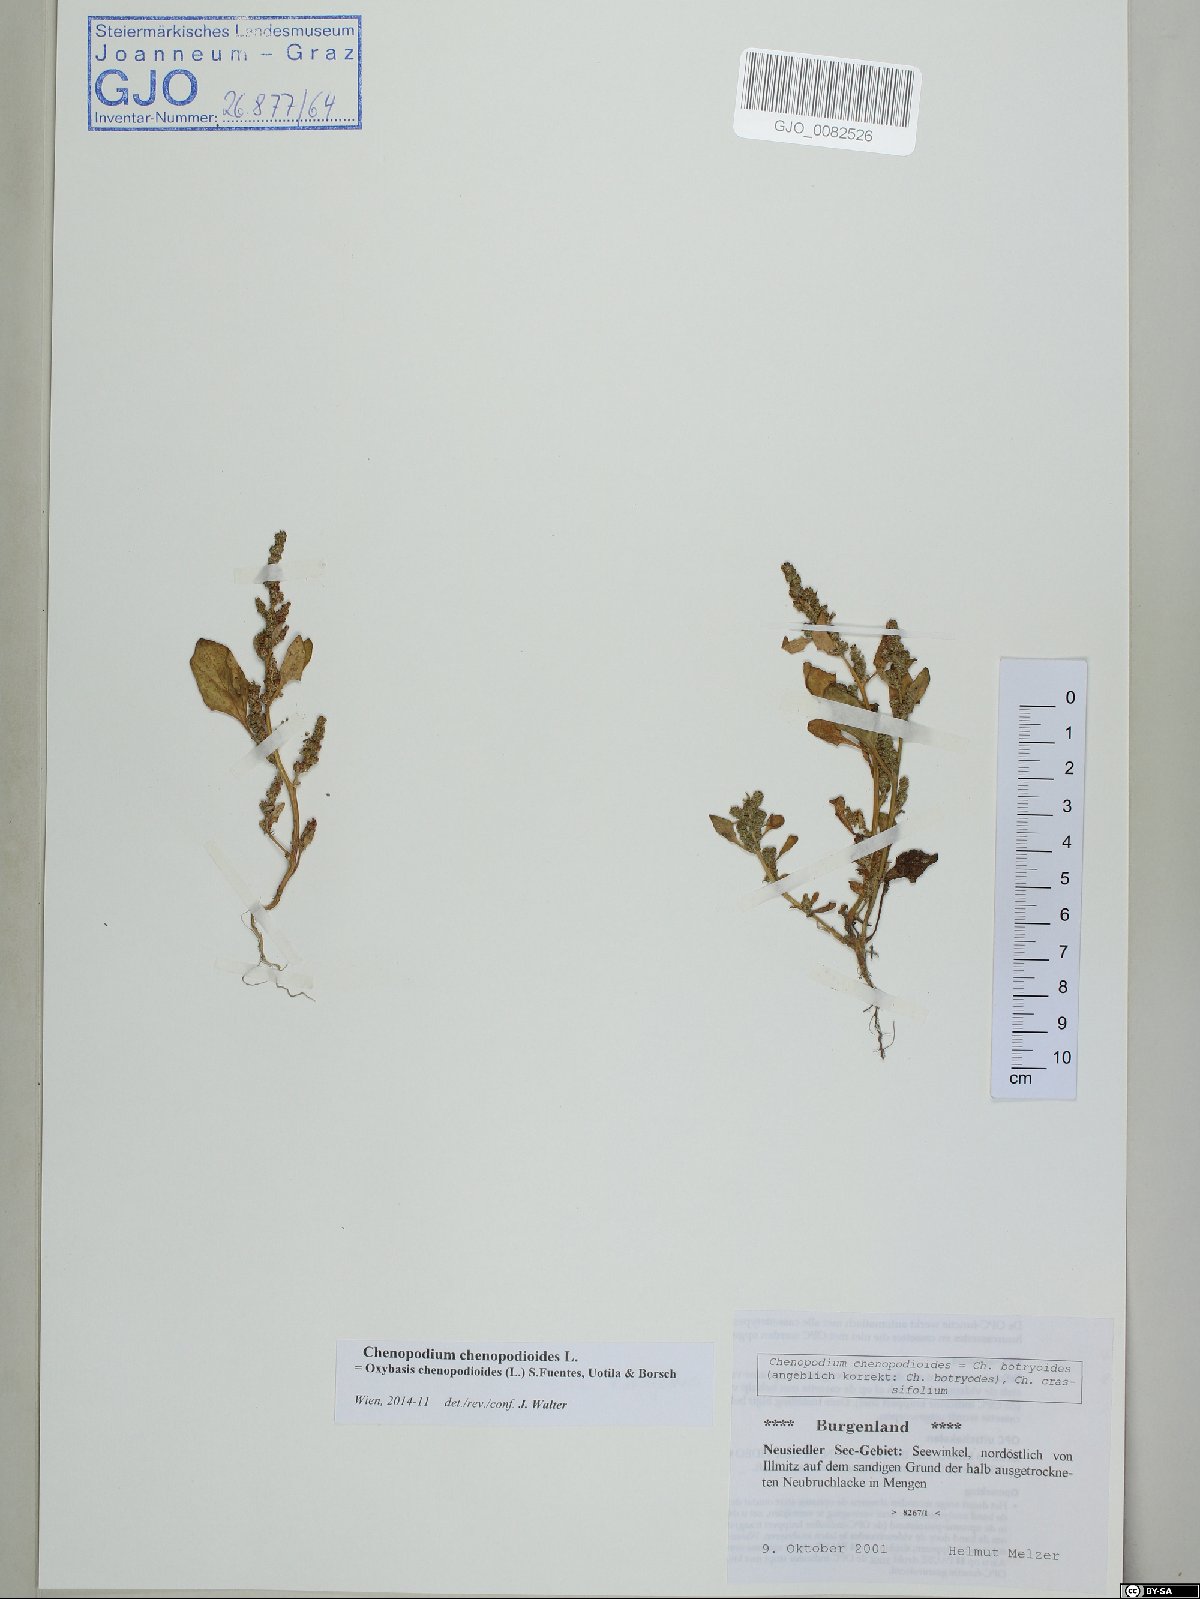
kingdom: Plantae
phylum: Tracheophyta
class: Magnoliopsida
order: Caryophyllales
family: Amaranthaceae
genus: Oxybasis
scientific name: Oxybasis chenopodioides
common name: Saltmarsh goosefoot
